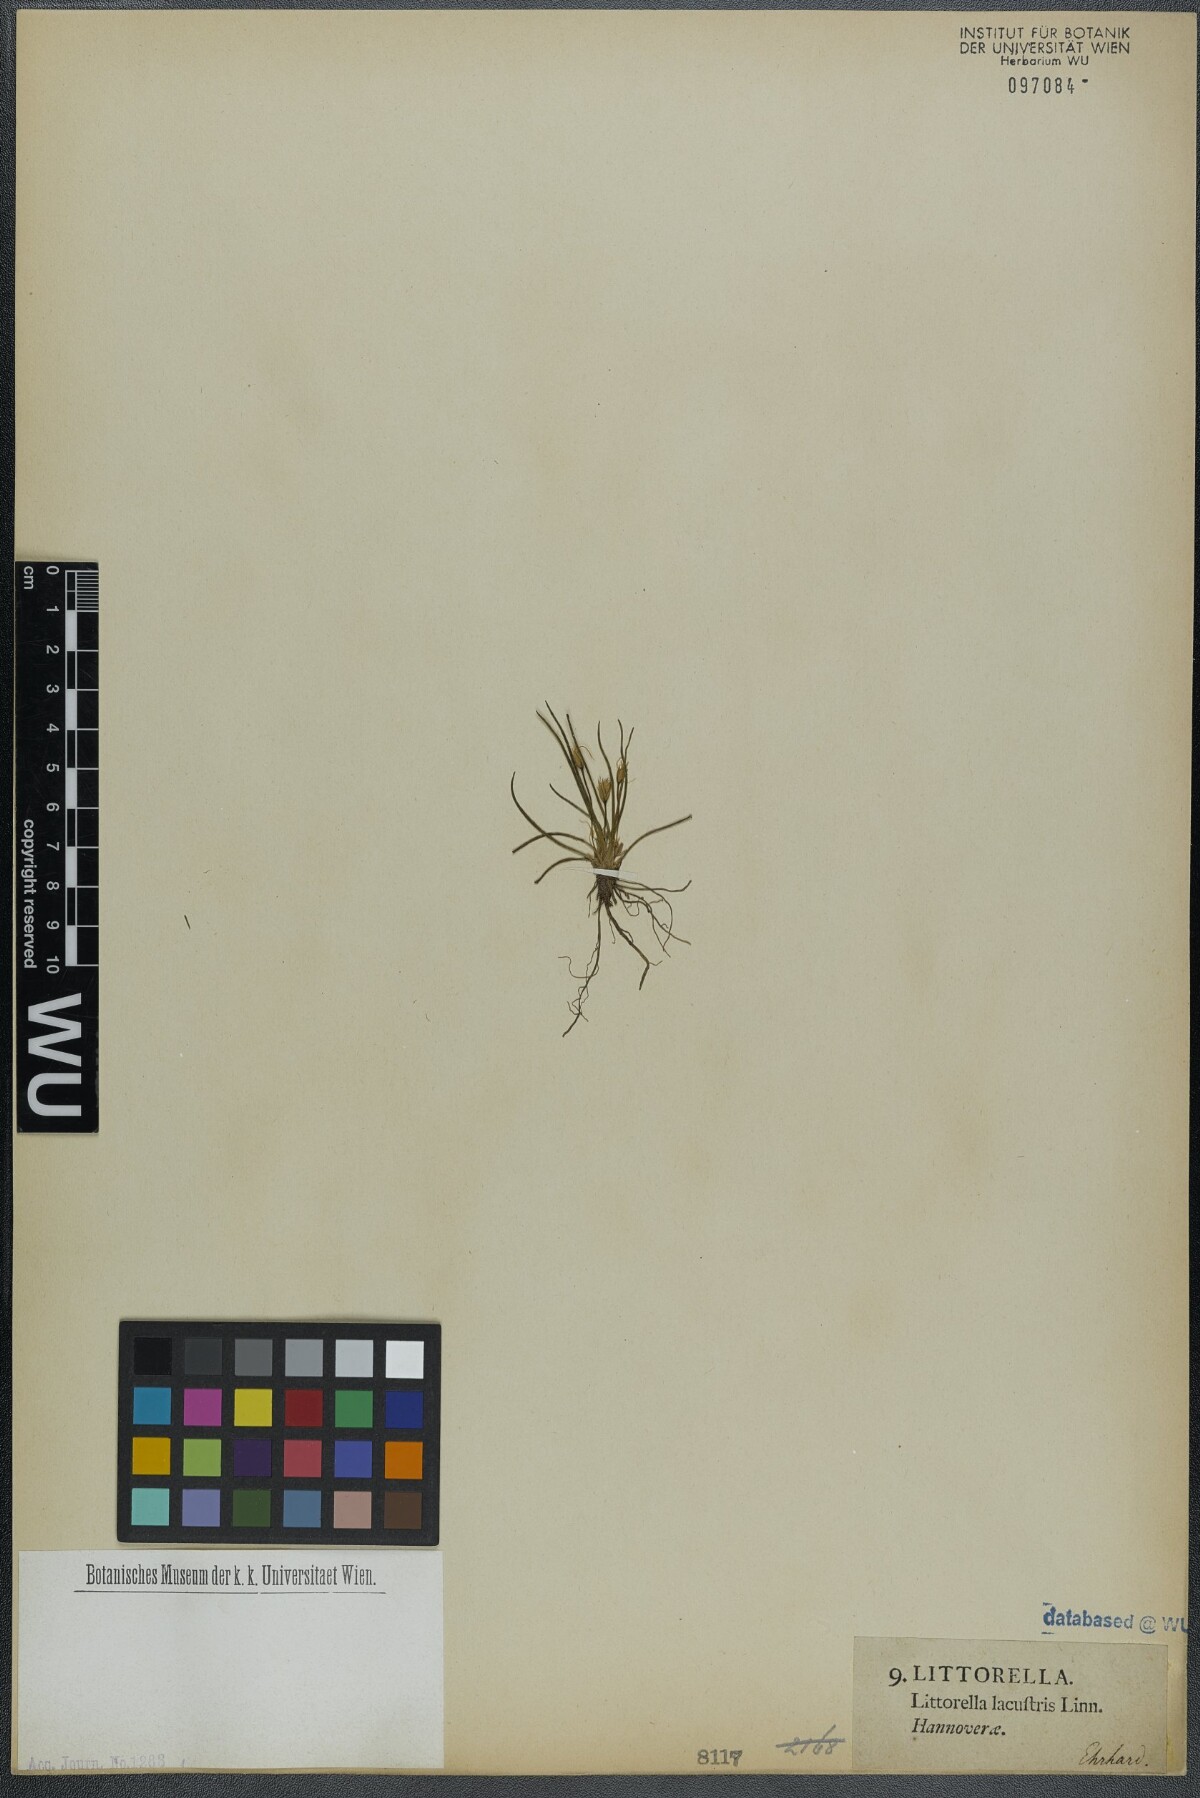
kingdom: Plantae
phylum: Tracheophyta
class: Magnoliopsida
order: Lamiales
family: Plantaginaceae
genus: Littorella
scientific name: Littorella uniflora
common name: Shoreweed
